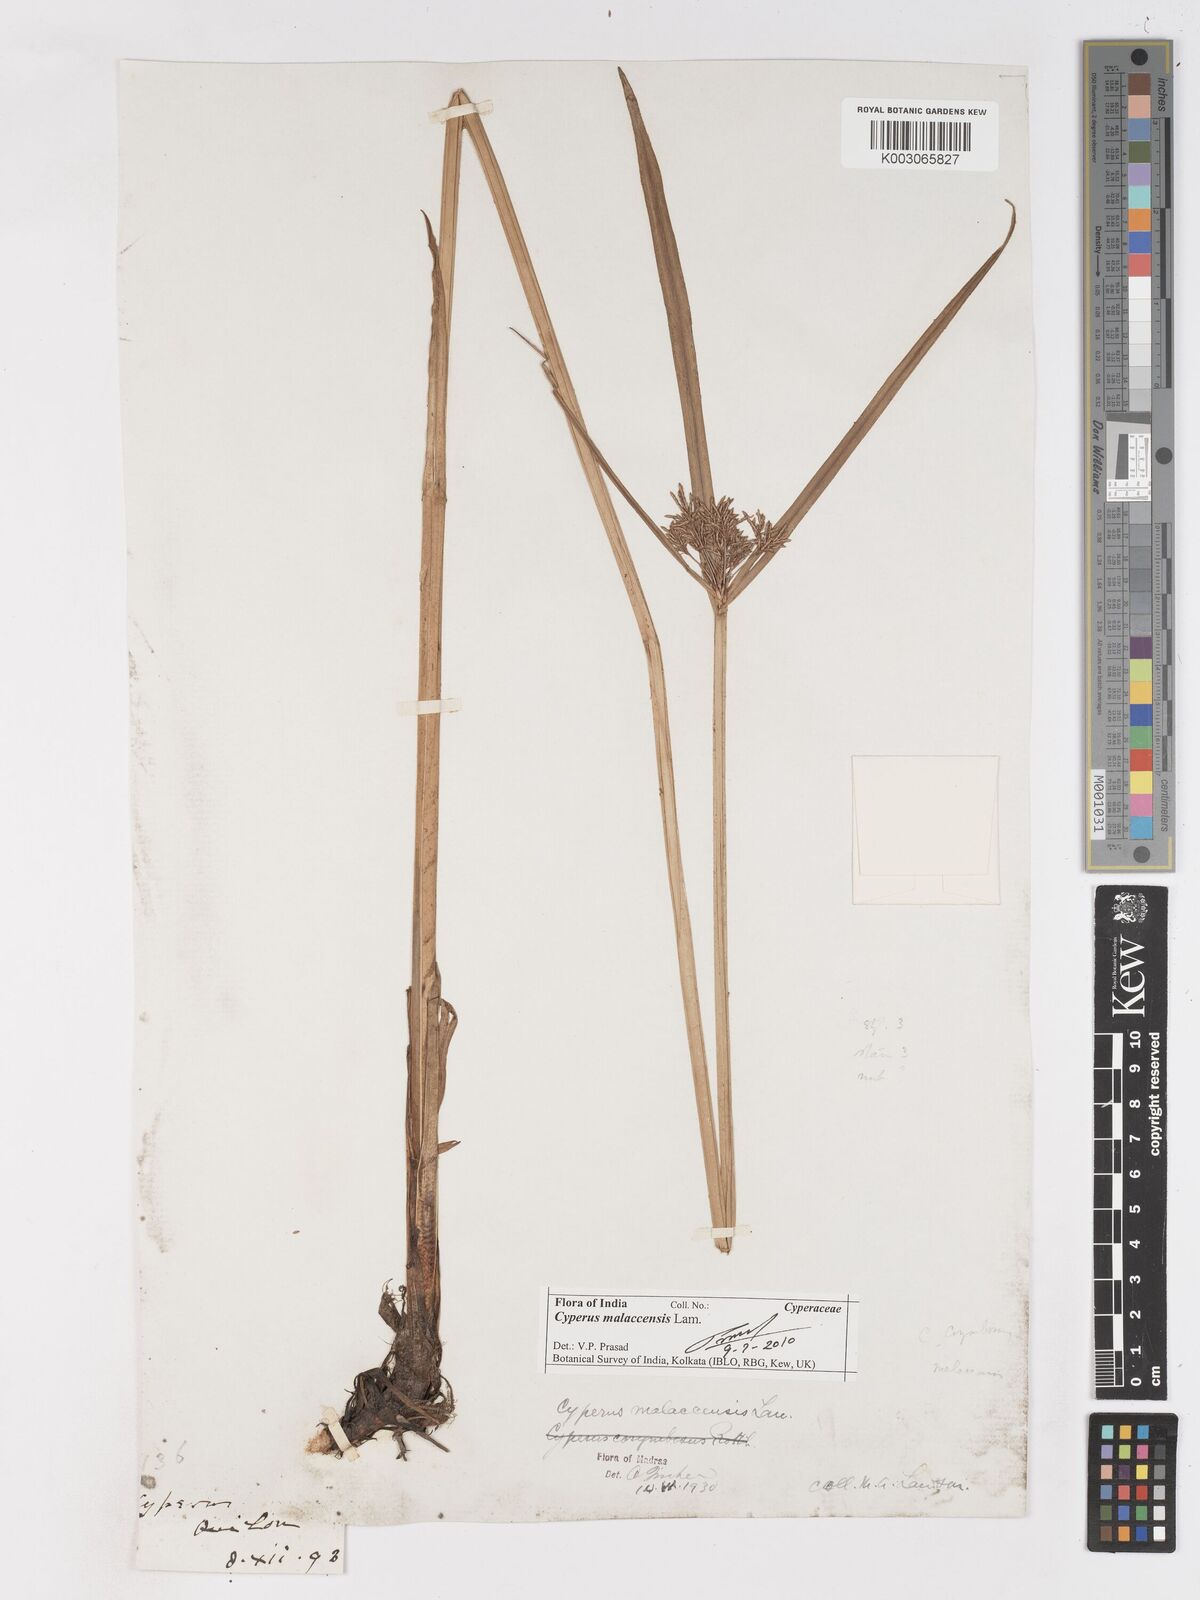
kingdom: Plantae
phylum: Tracheophyta
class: Liliopsida
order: Poales
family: Cyperaceae
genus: Cyperus
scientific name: Cyperus malaccensis
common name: Shichito matgrass
